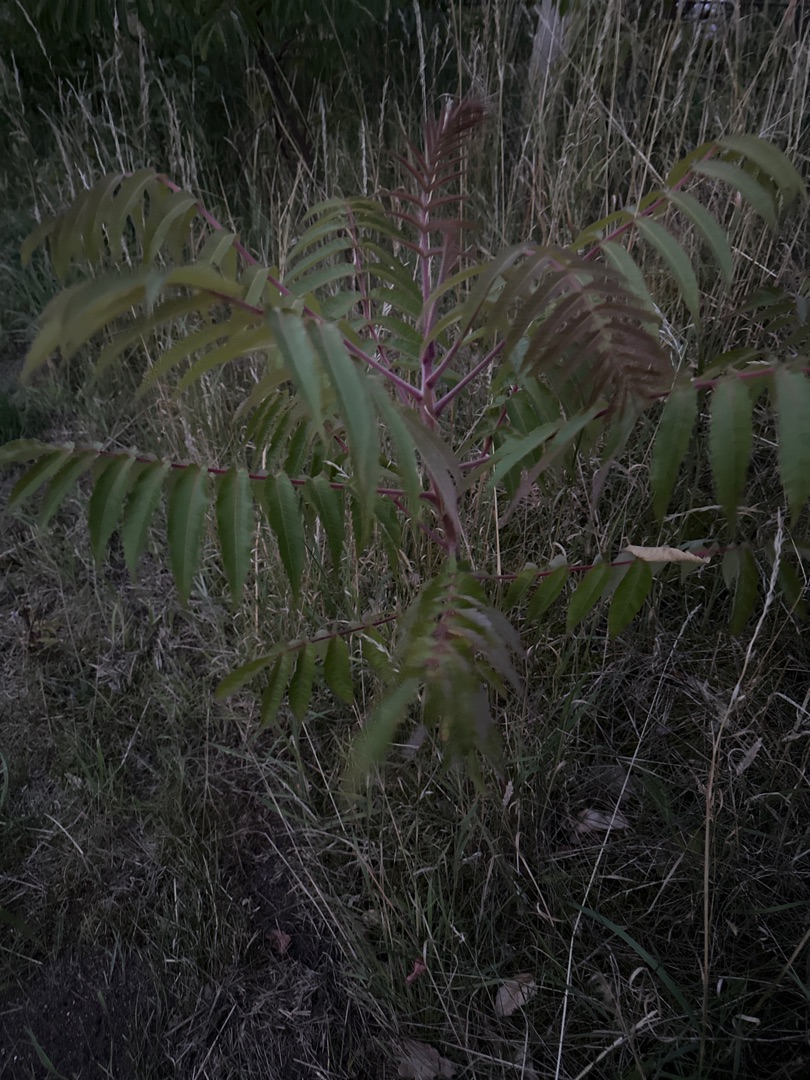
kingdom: Plantae
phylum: Tracheophyta
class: Magnoliopsida
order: Sapindales
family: Anacardiaceae
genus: Rhus
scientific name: Rhus typhina
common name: Hjortetaktræ
